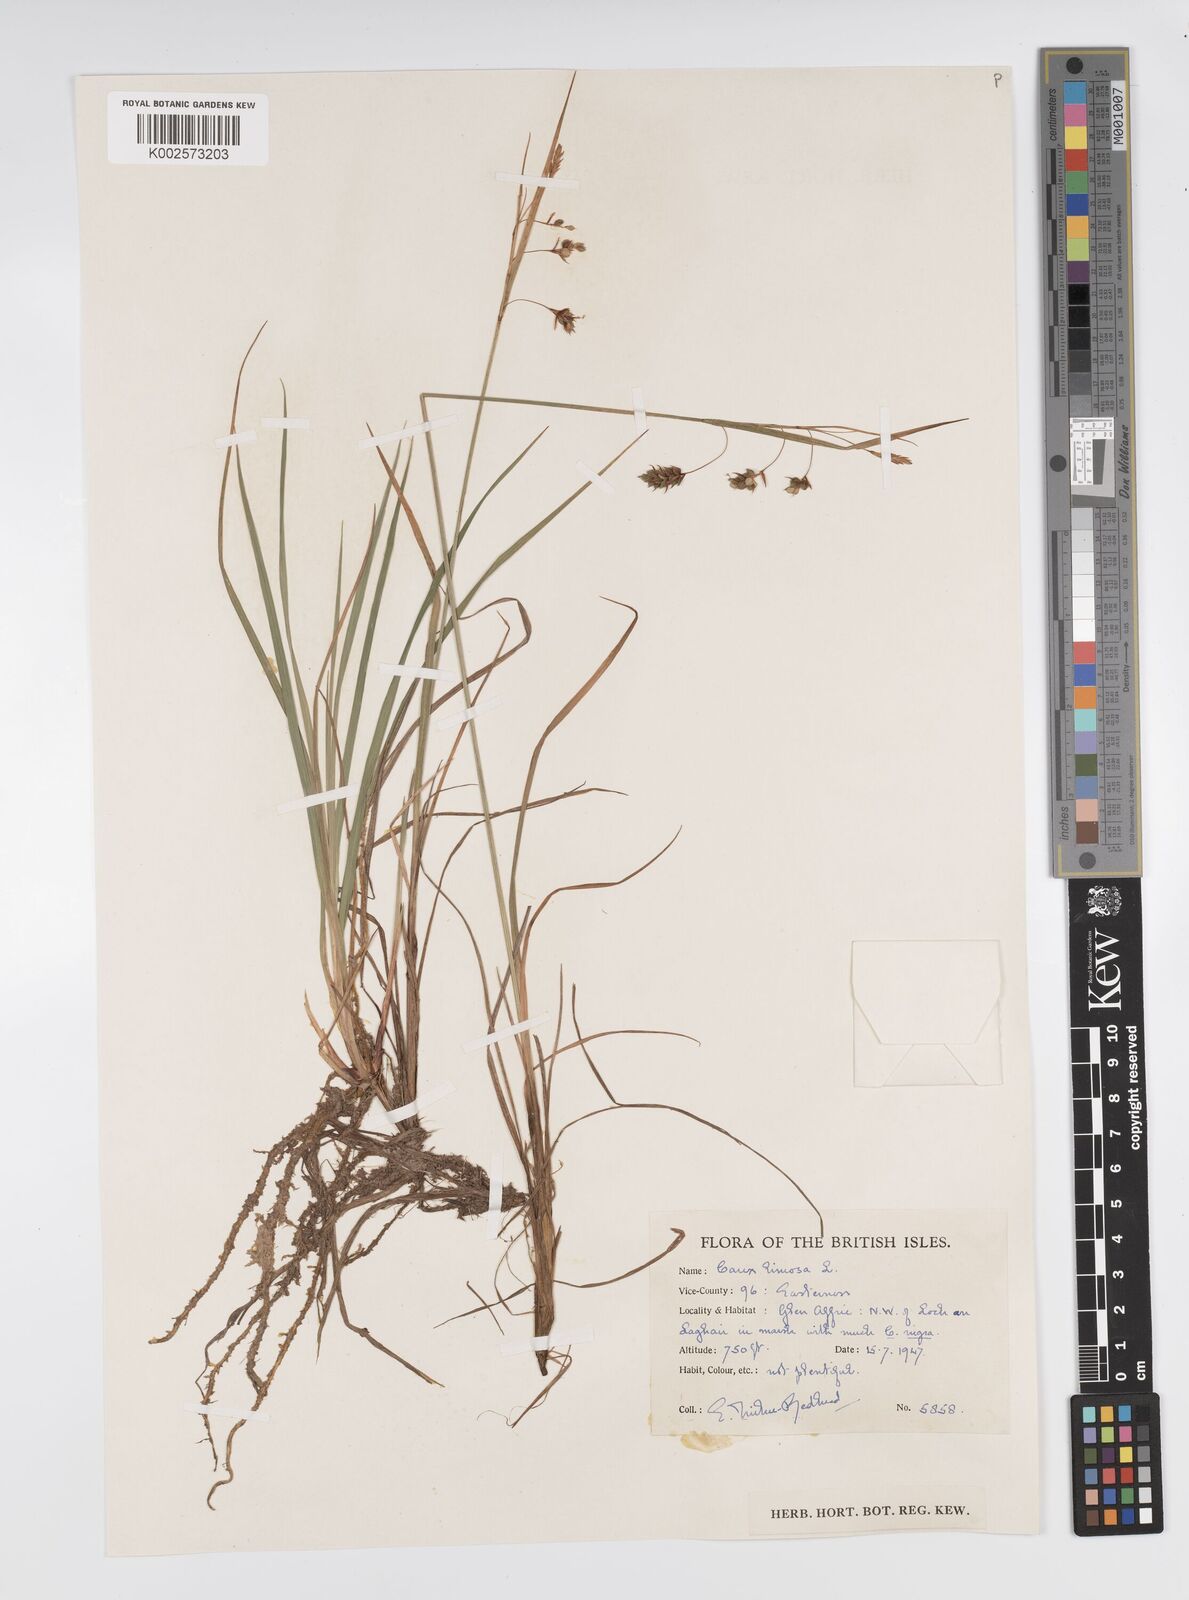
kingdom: Plantae
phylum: Tracheophyta
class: Liliopsida
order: Poales
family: Cyperaceae
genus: Carex
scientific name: Carex magellanica
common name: Bog sedge
